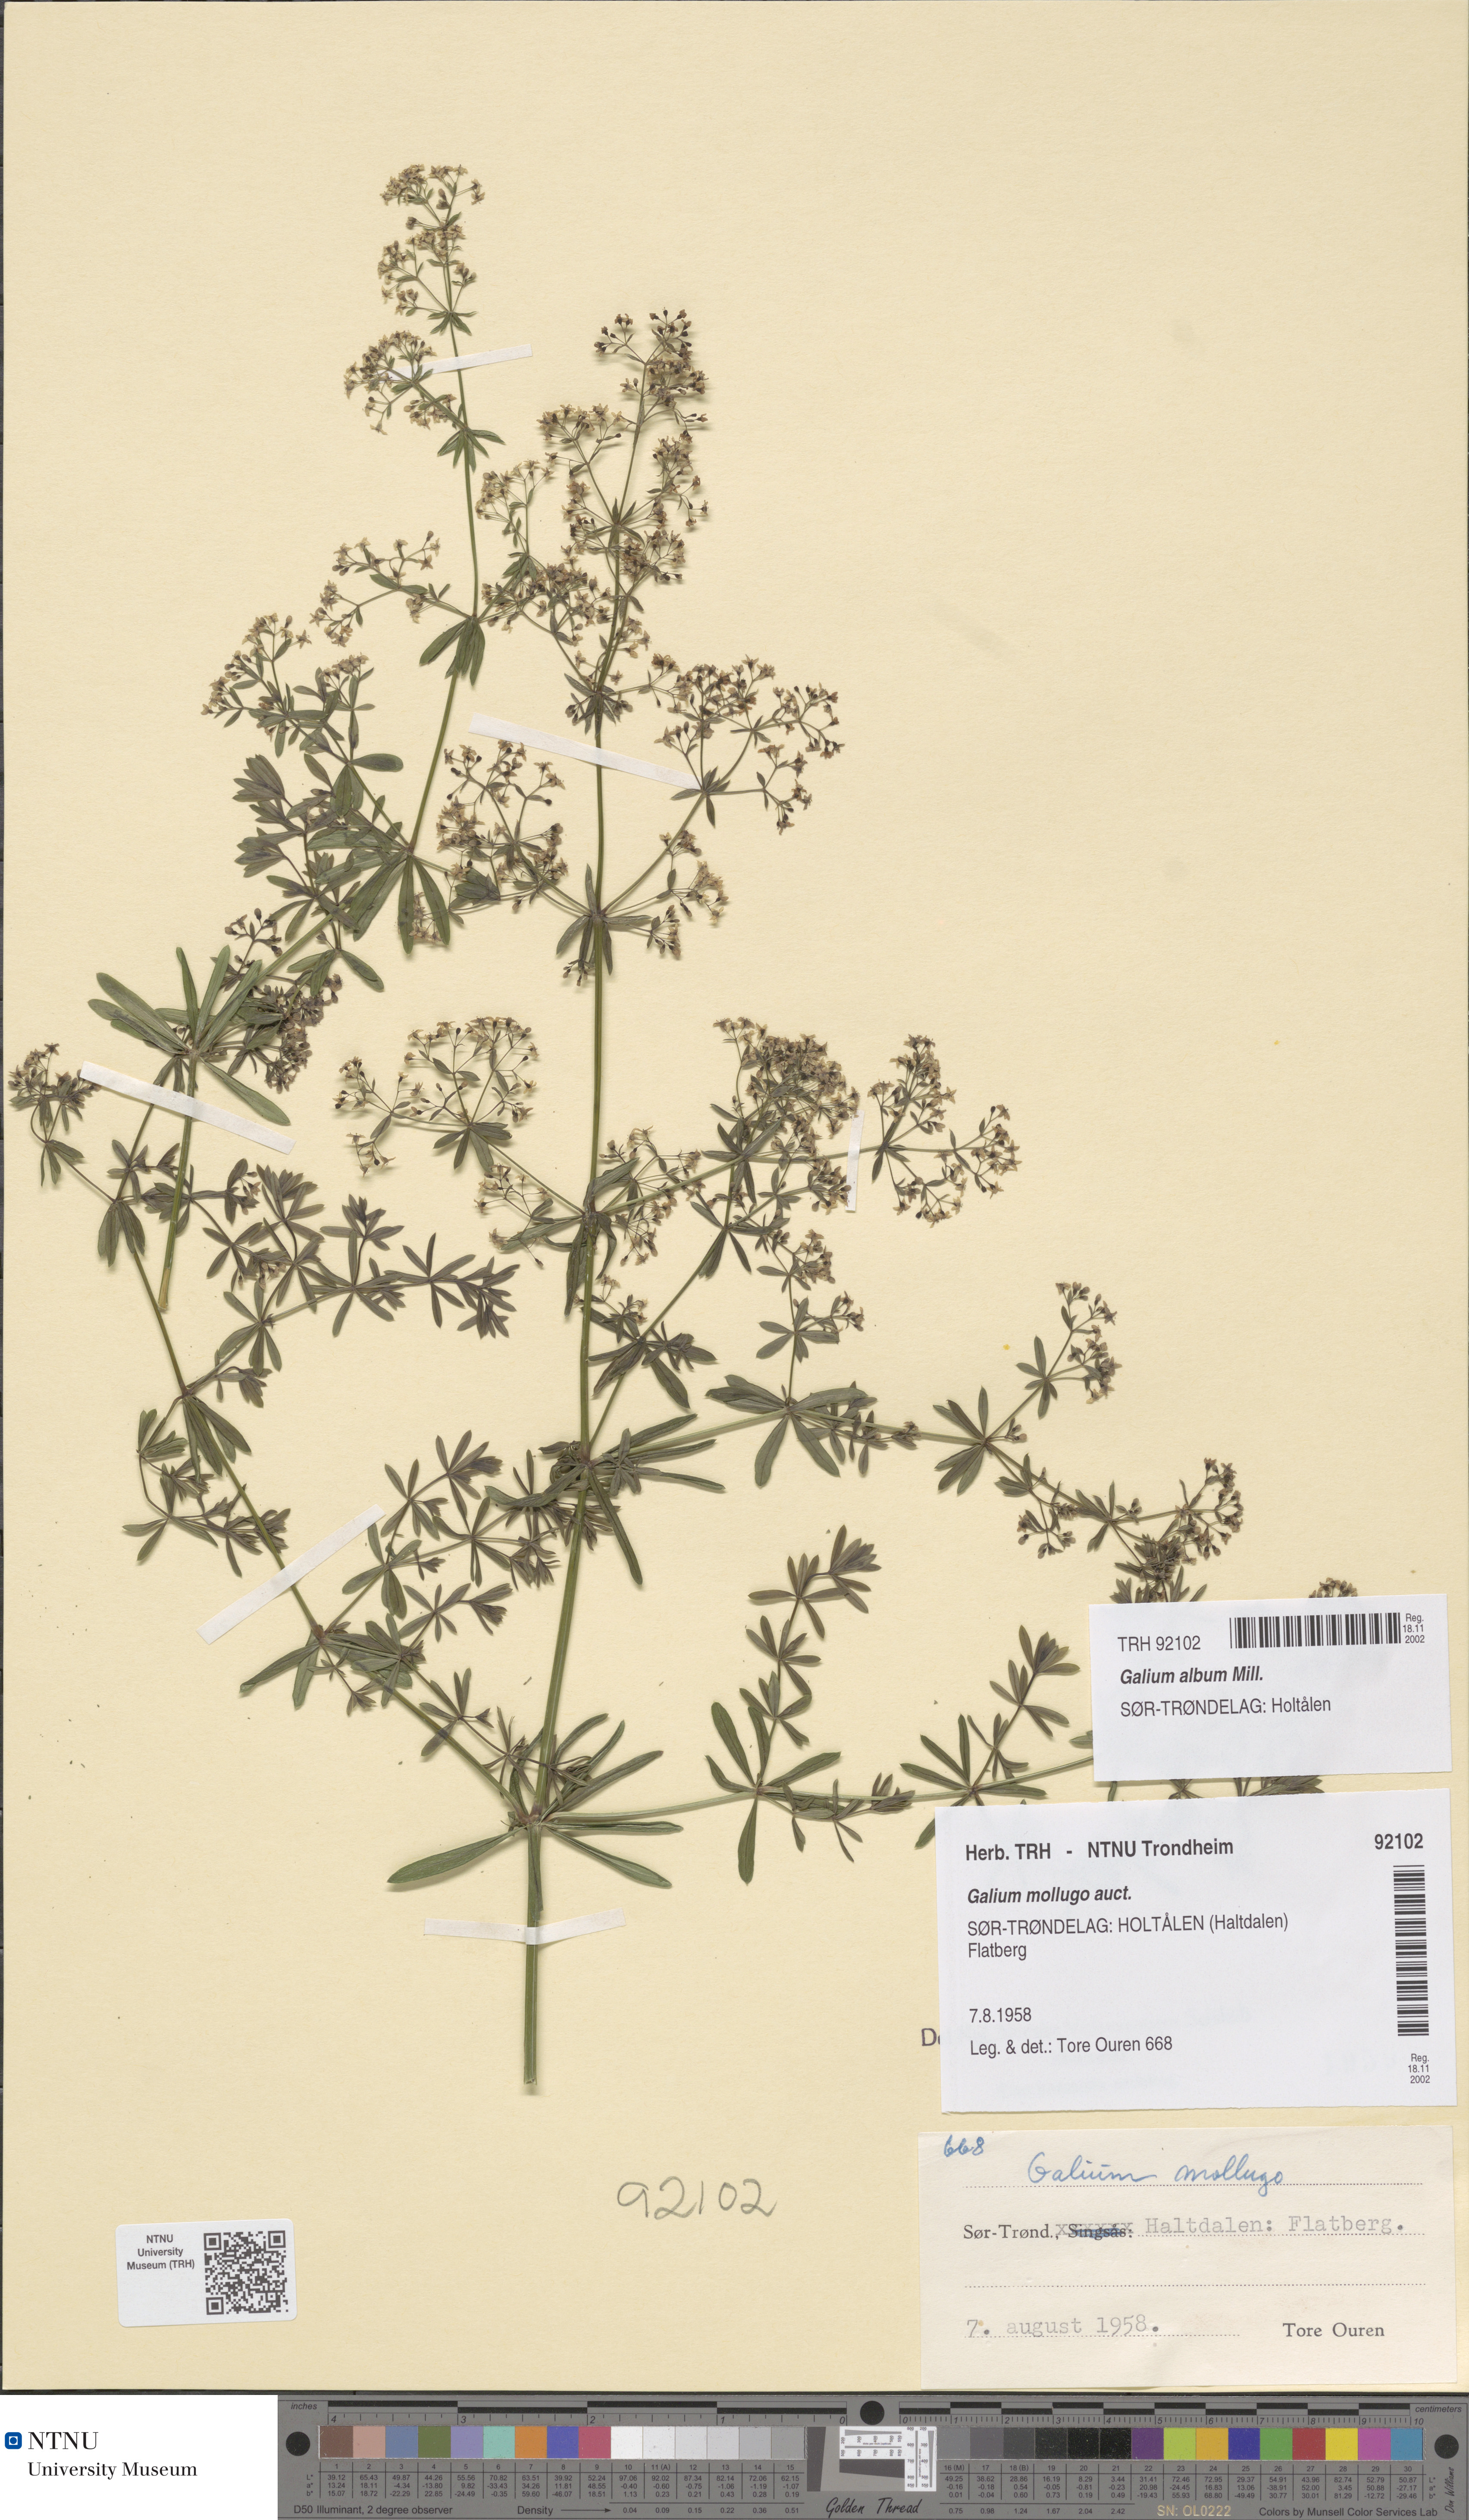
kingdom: Plantae
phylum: Tracheophyta
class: Magnoliopsida
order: Gentianales
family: Rubiaceae
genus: Galium
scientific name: Galium album
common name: White bedstraw
